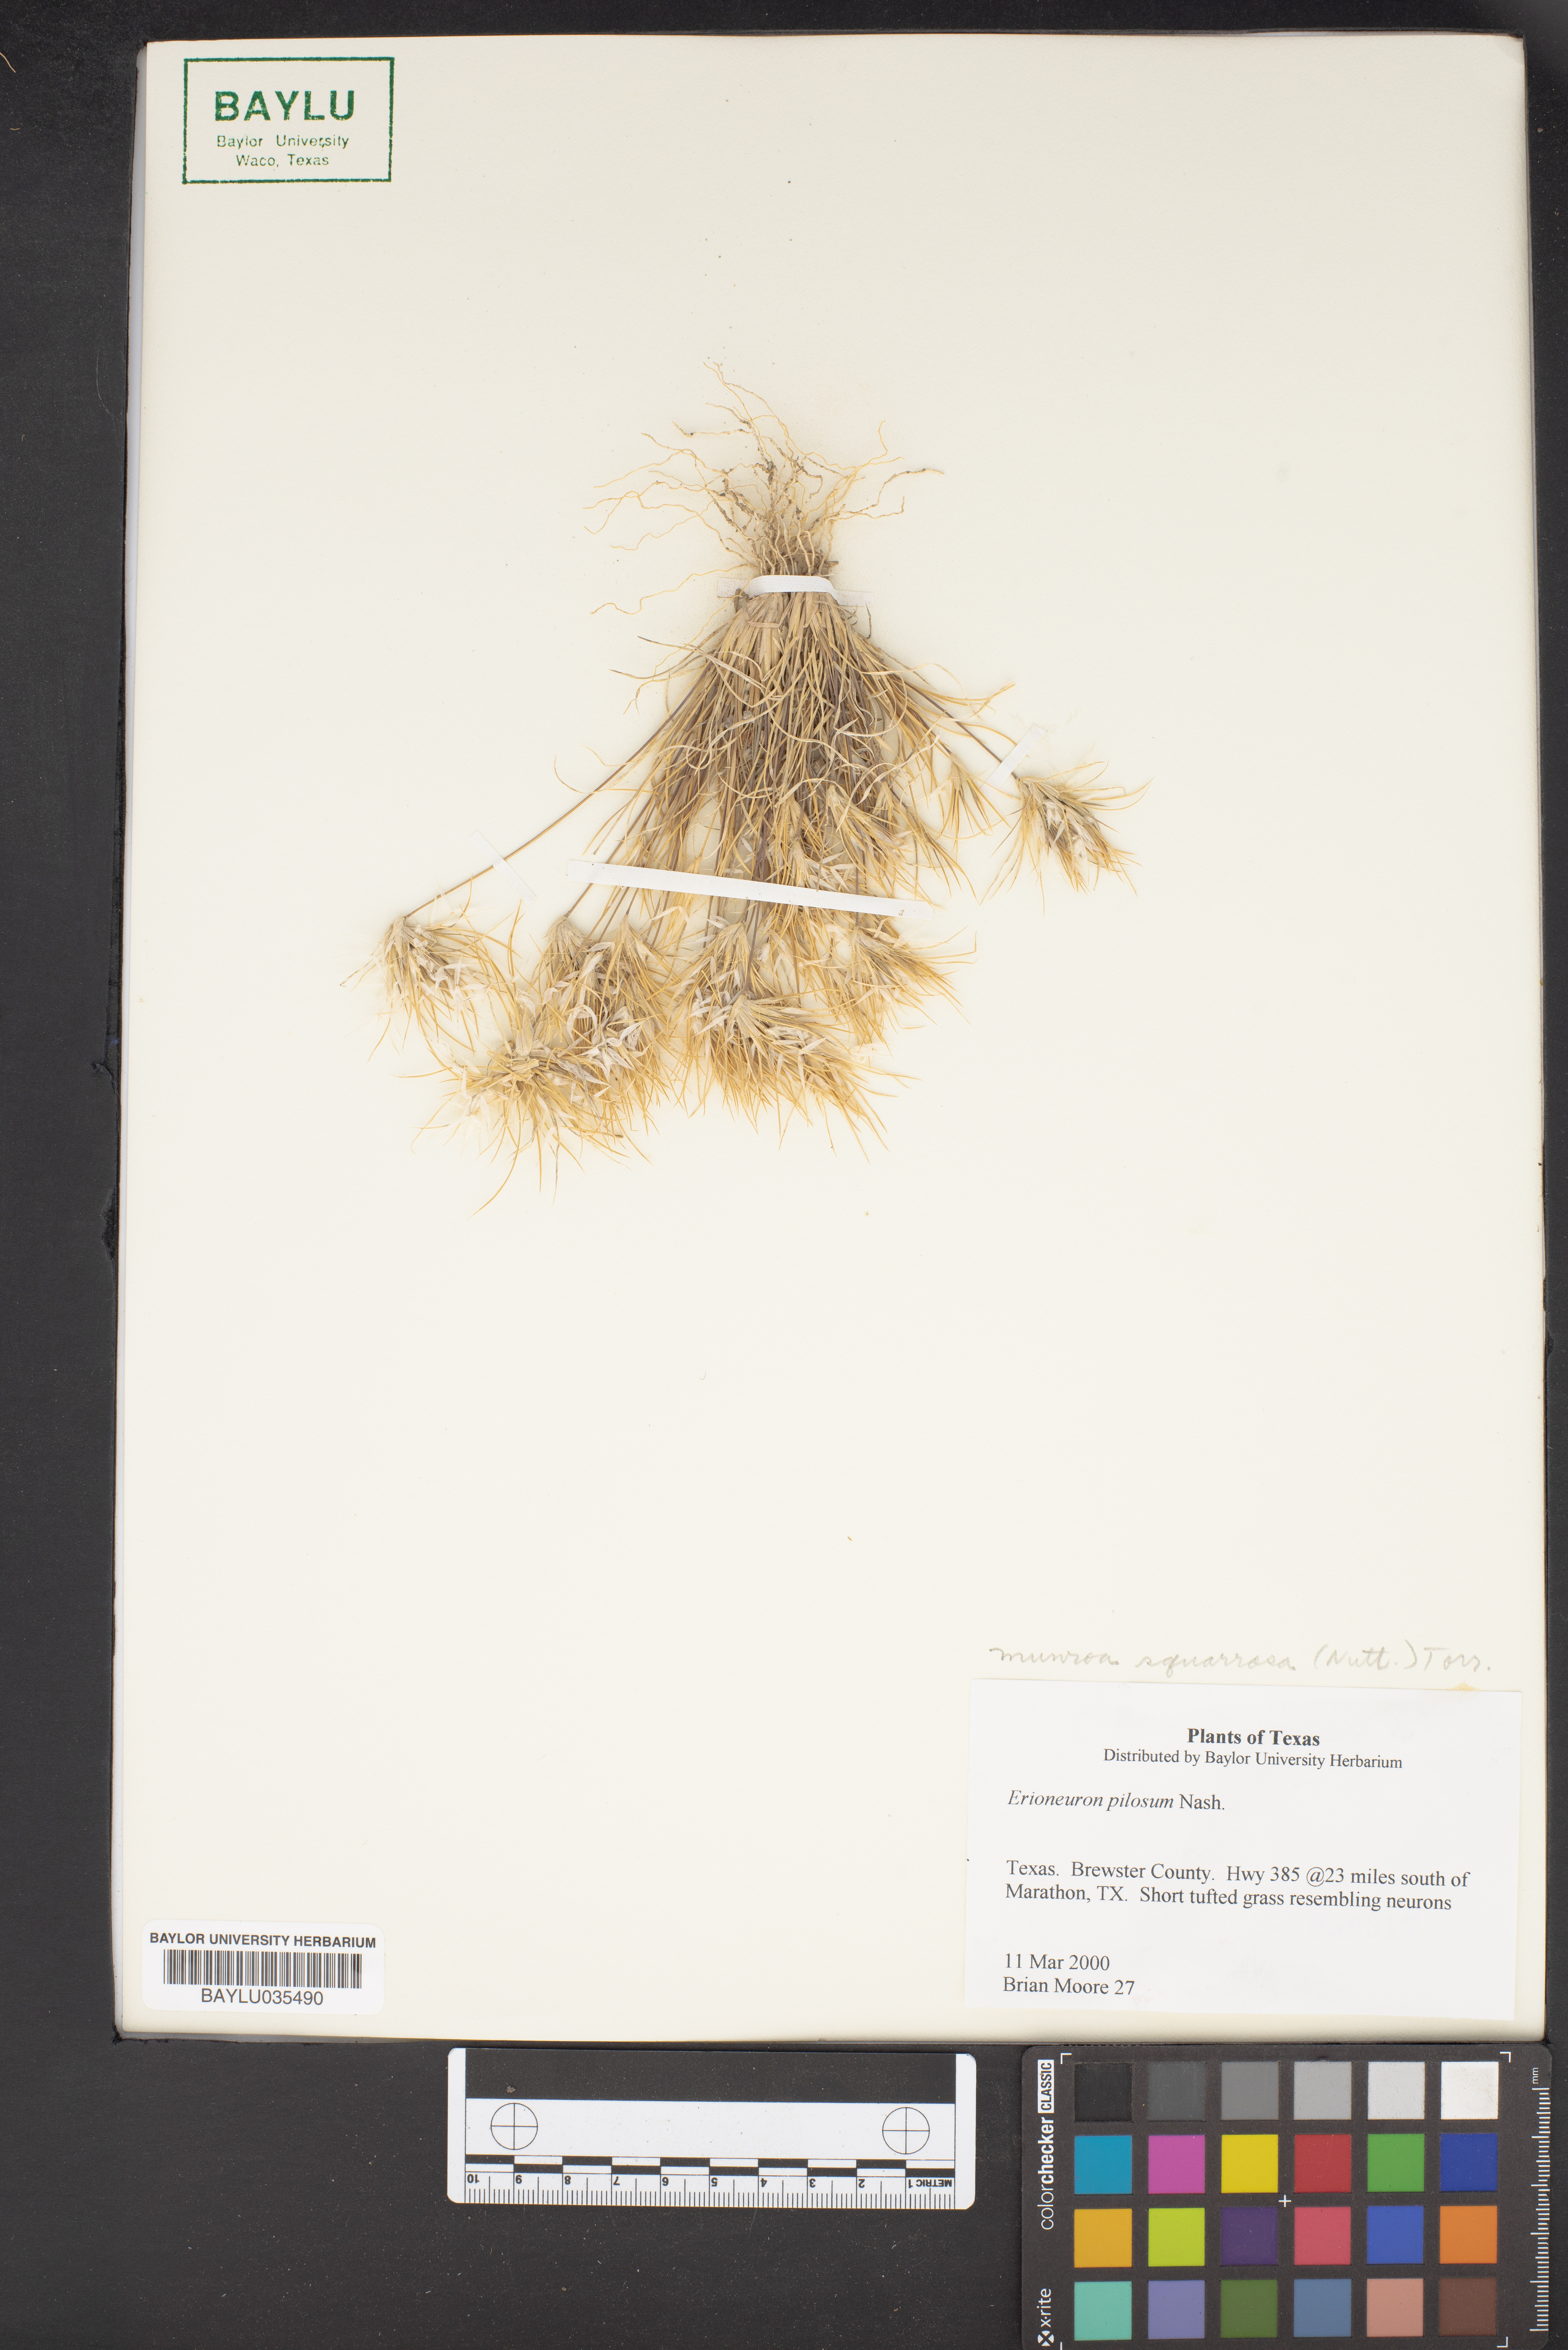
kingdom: Plantae
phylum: Tracheophyta
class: Liliopsida
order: Poales
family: Poaceae
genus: Erioneuron
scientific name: Erioneuron pilosum
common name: Hairy woolly grass
